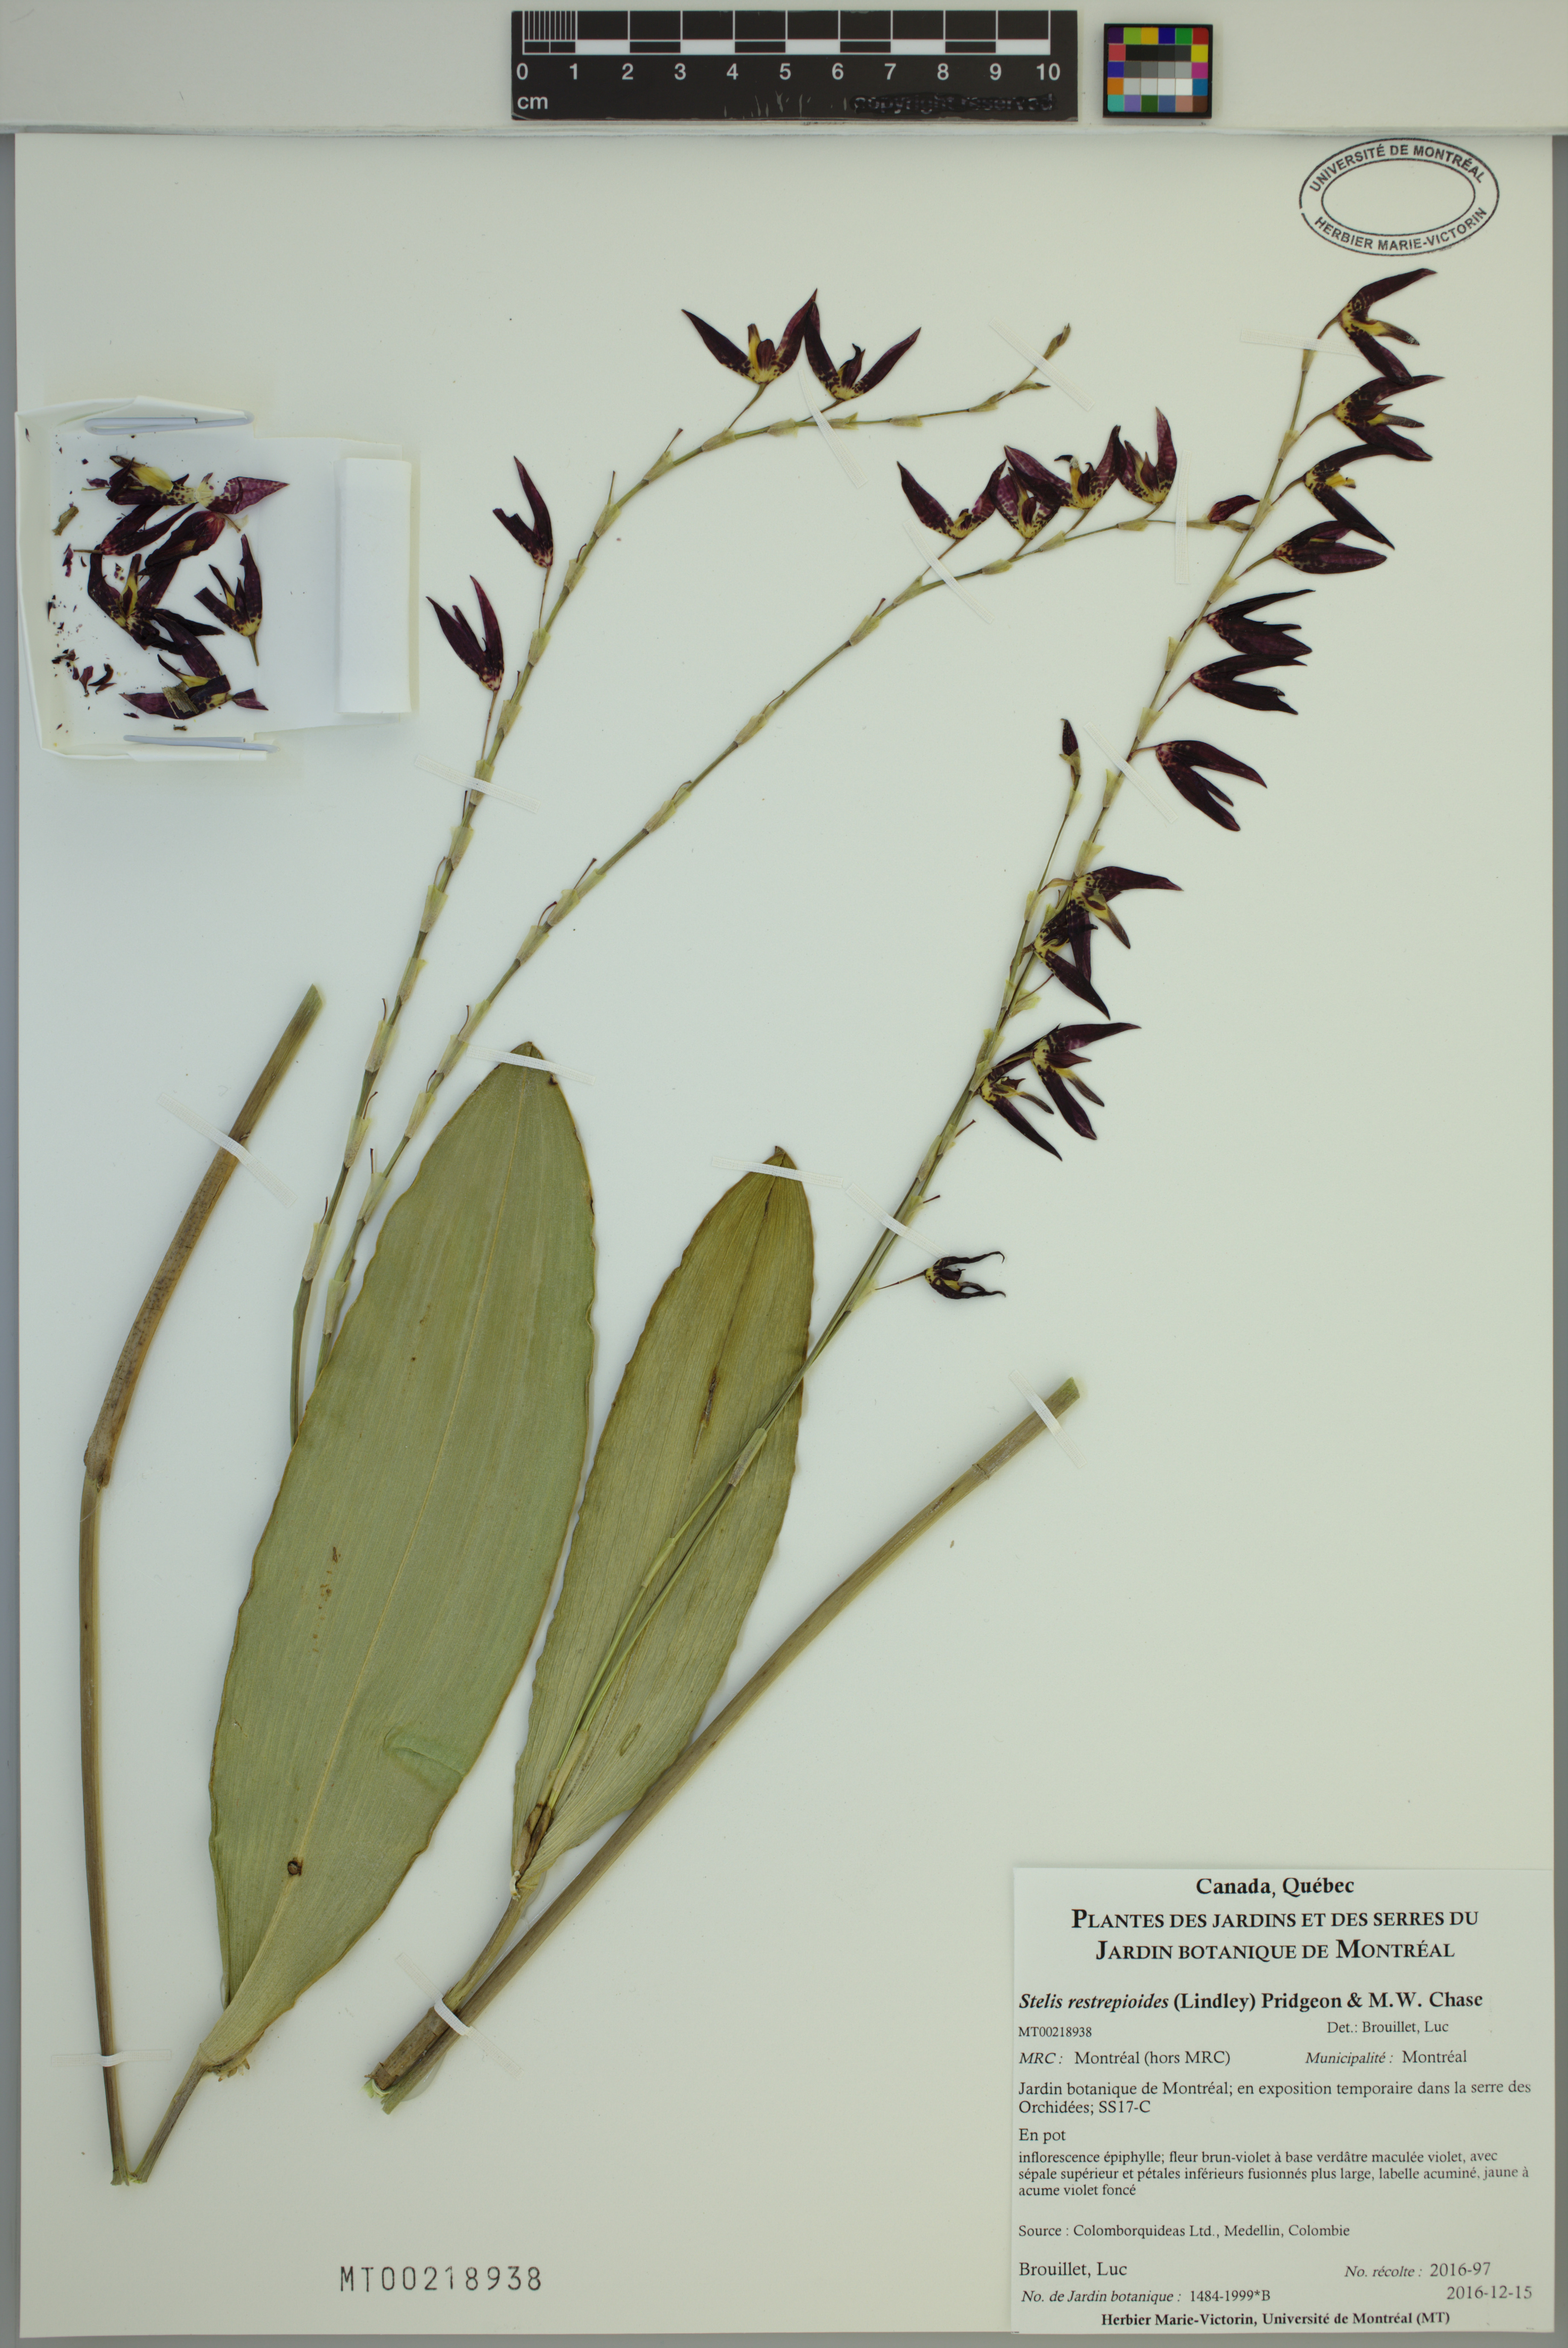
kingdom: Plantae
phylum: Tracheophyta
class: Liliopsida
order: Asparagales
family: Orchidaceae
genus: Pleurothallis
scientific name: Pleurothallis restrepioides
